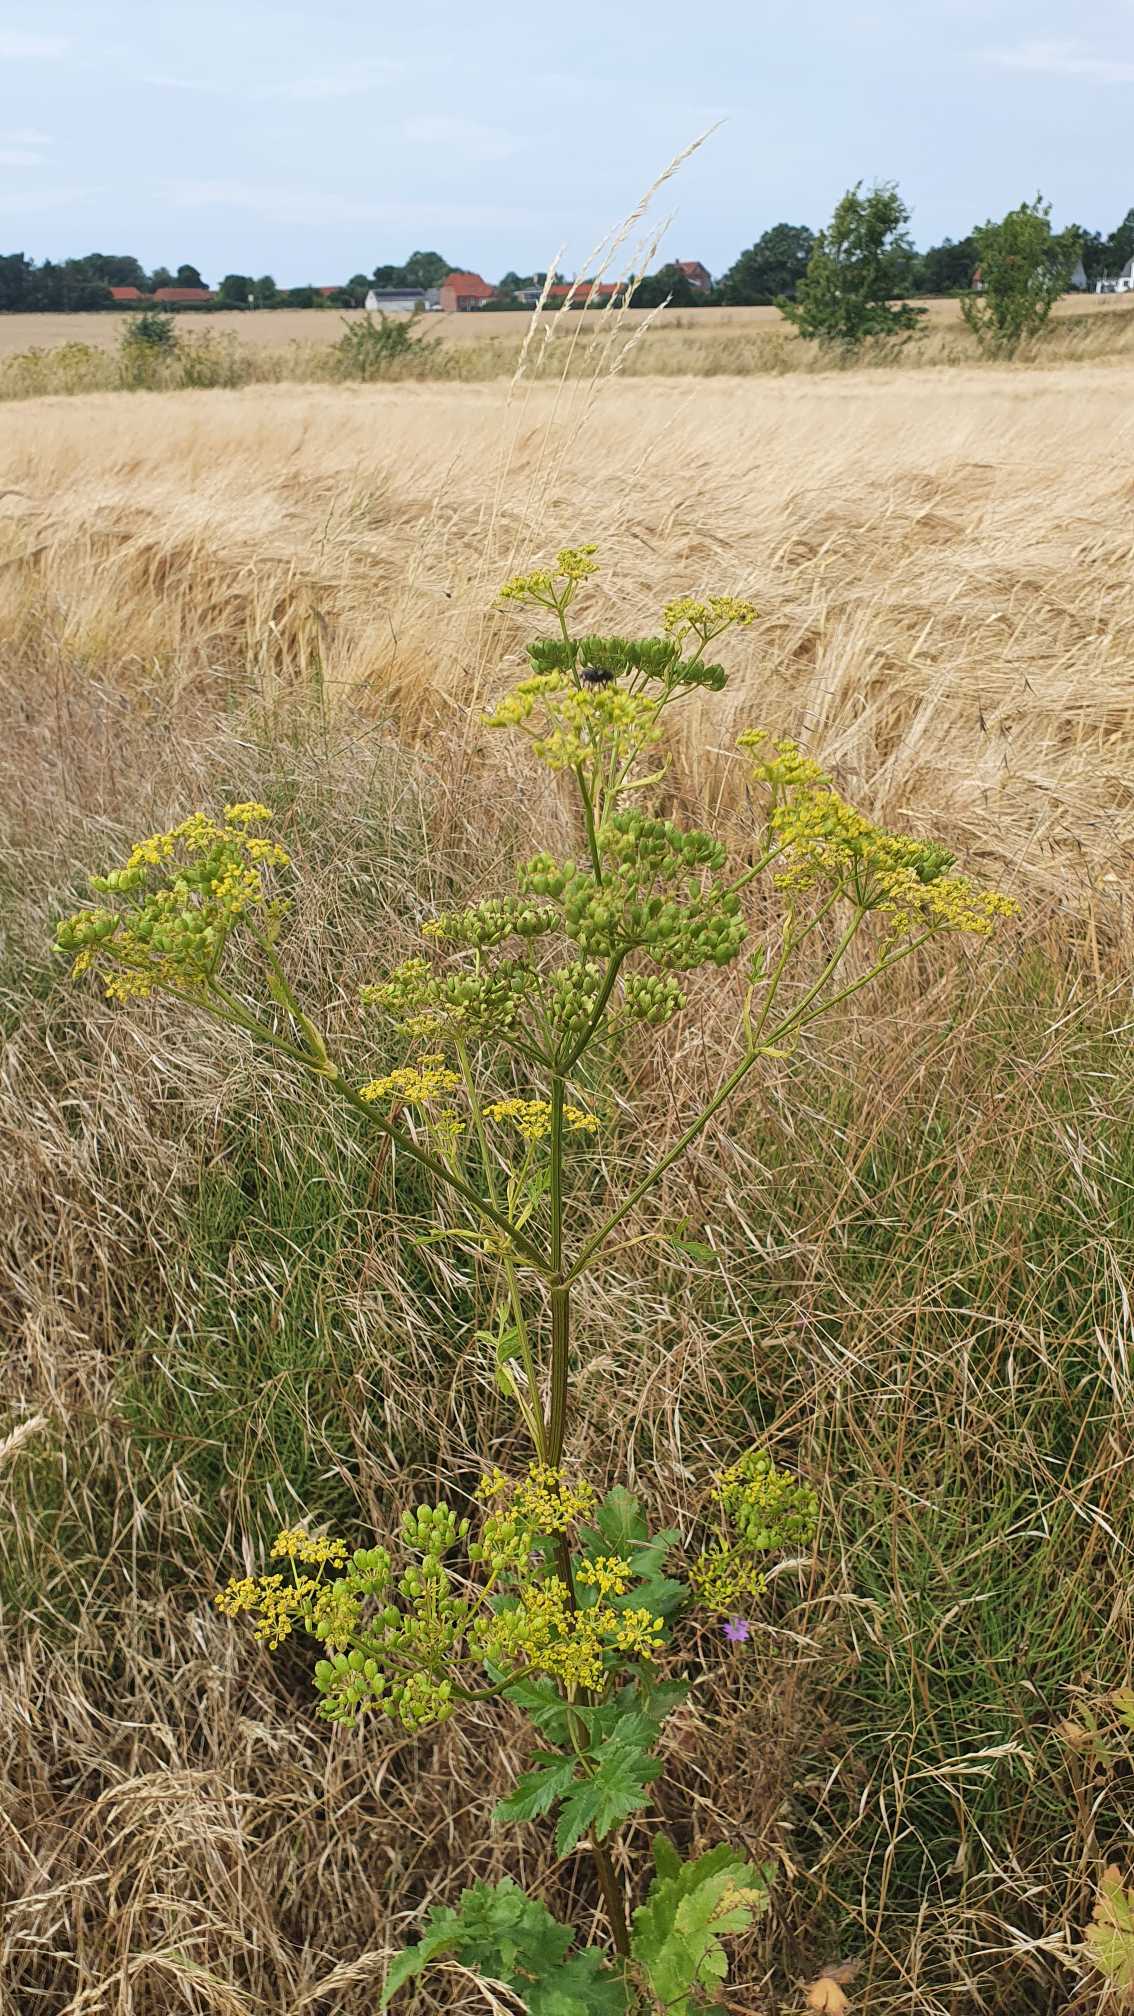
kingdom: Plantae
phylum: Tracheophyta
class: Magnoliopsida
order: Apiales
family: Apiaceae
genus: Pastinaca
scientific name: Pastinaca sativa
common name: Pastinak
